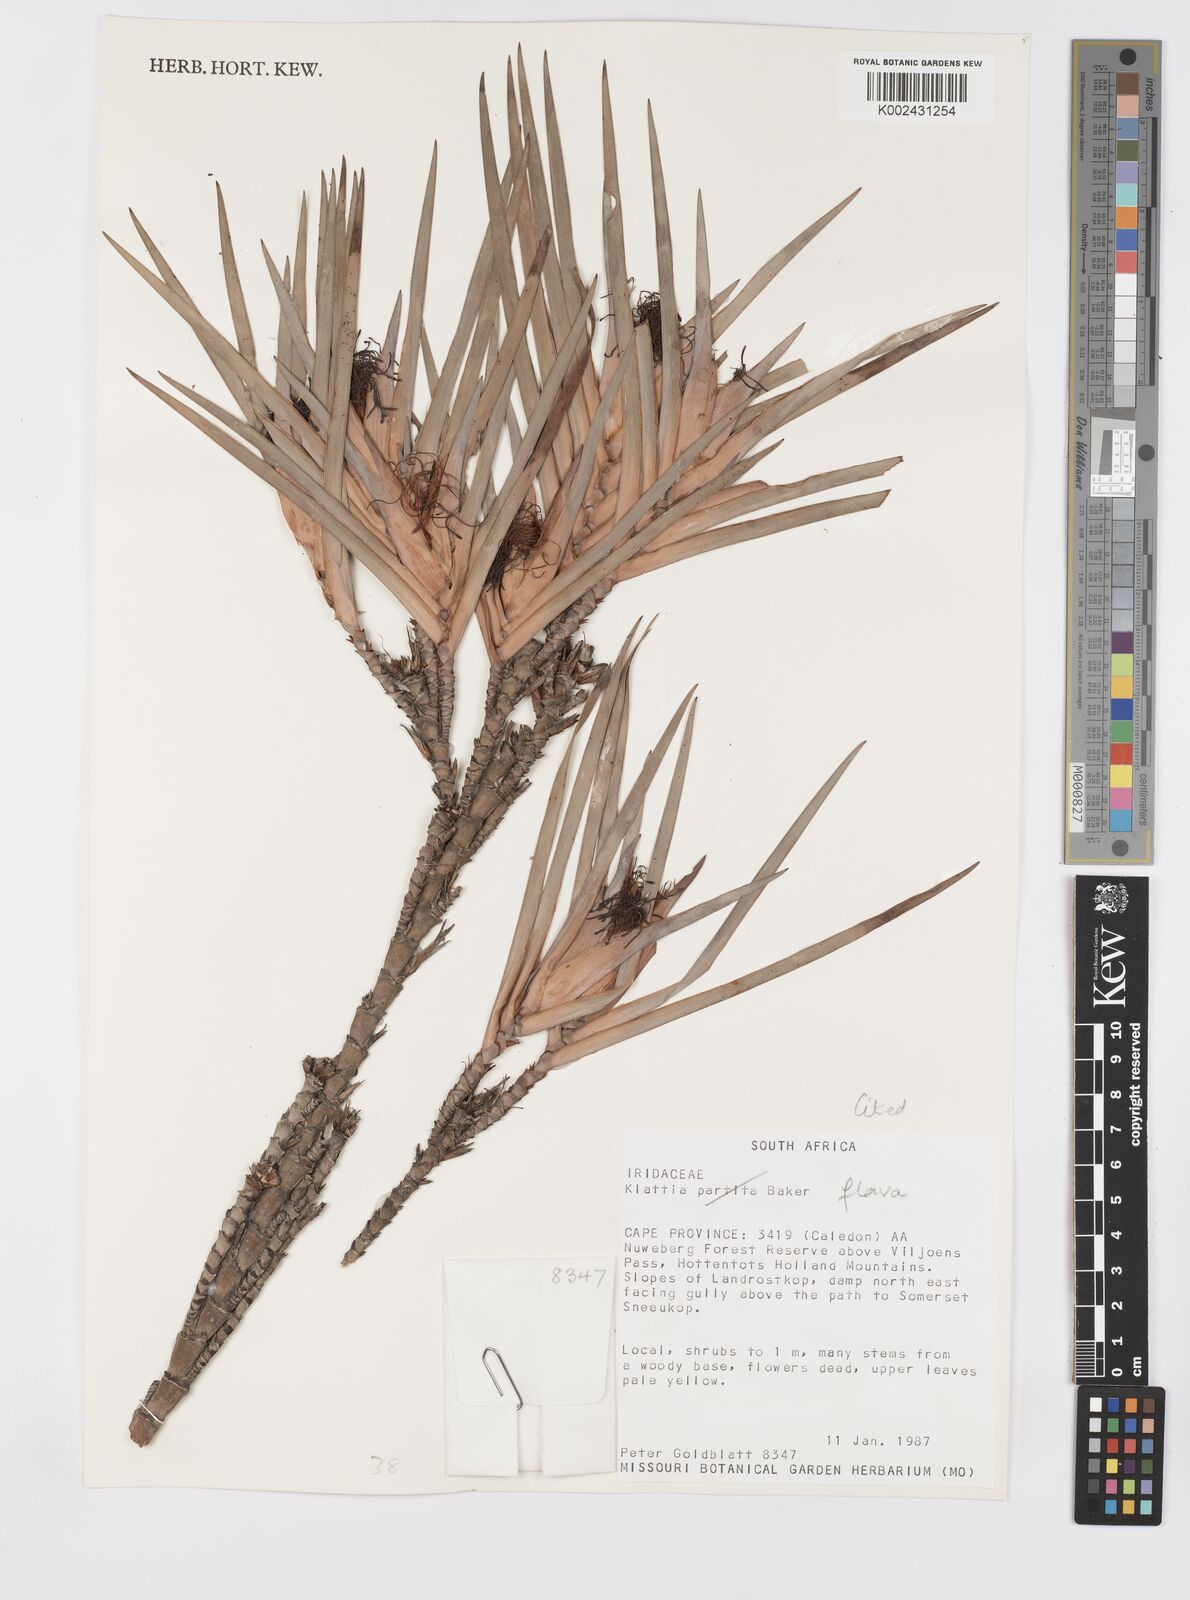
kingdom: Plantae
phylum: Tracheophyta
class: Liliopsida
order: Asparagales
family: Iridaceae
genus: Klattia
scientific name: Klattia flava
